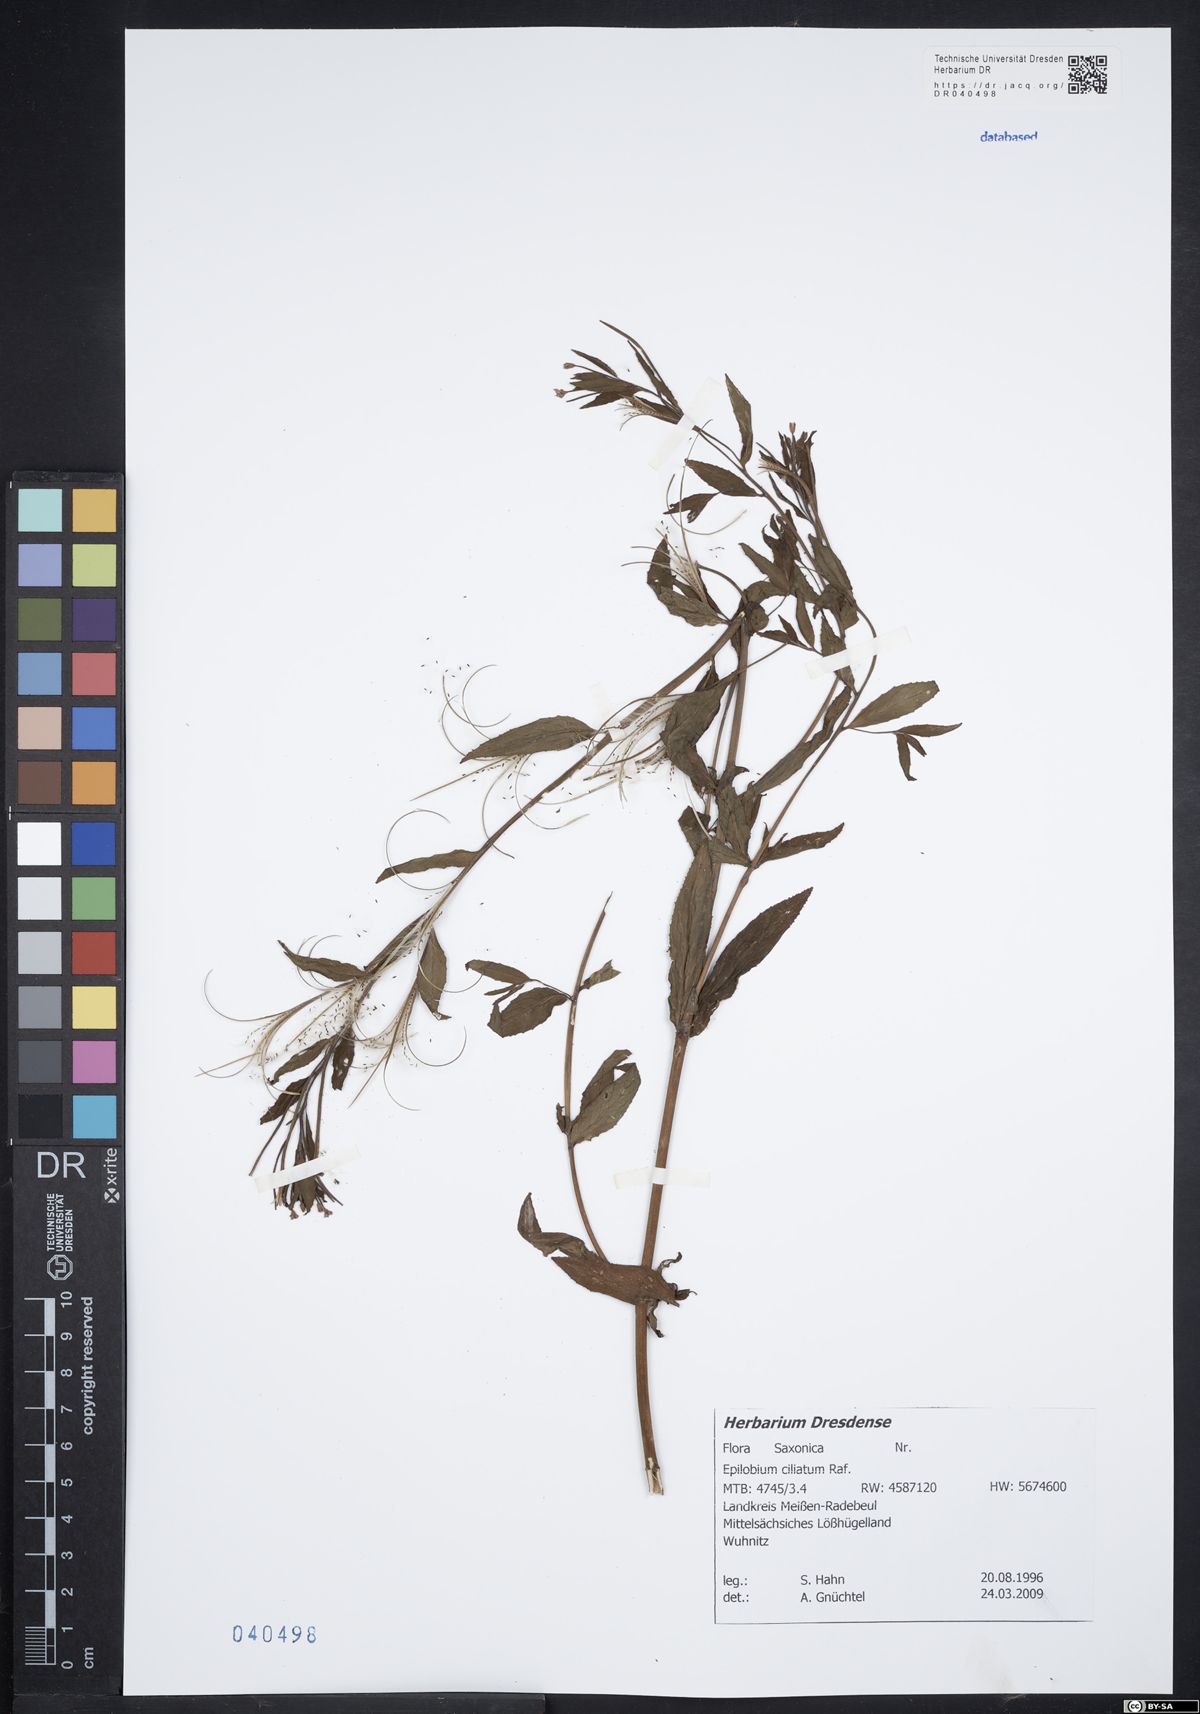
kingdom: Plantae
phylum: Tracheophyta
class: Magnoliopsida
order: Myrtales
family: Onagraceae
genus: Epilobium
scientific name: Epilobium ciliatum
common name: American willowherb
